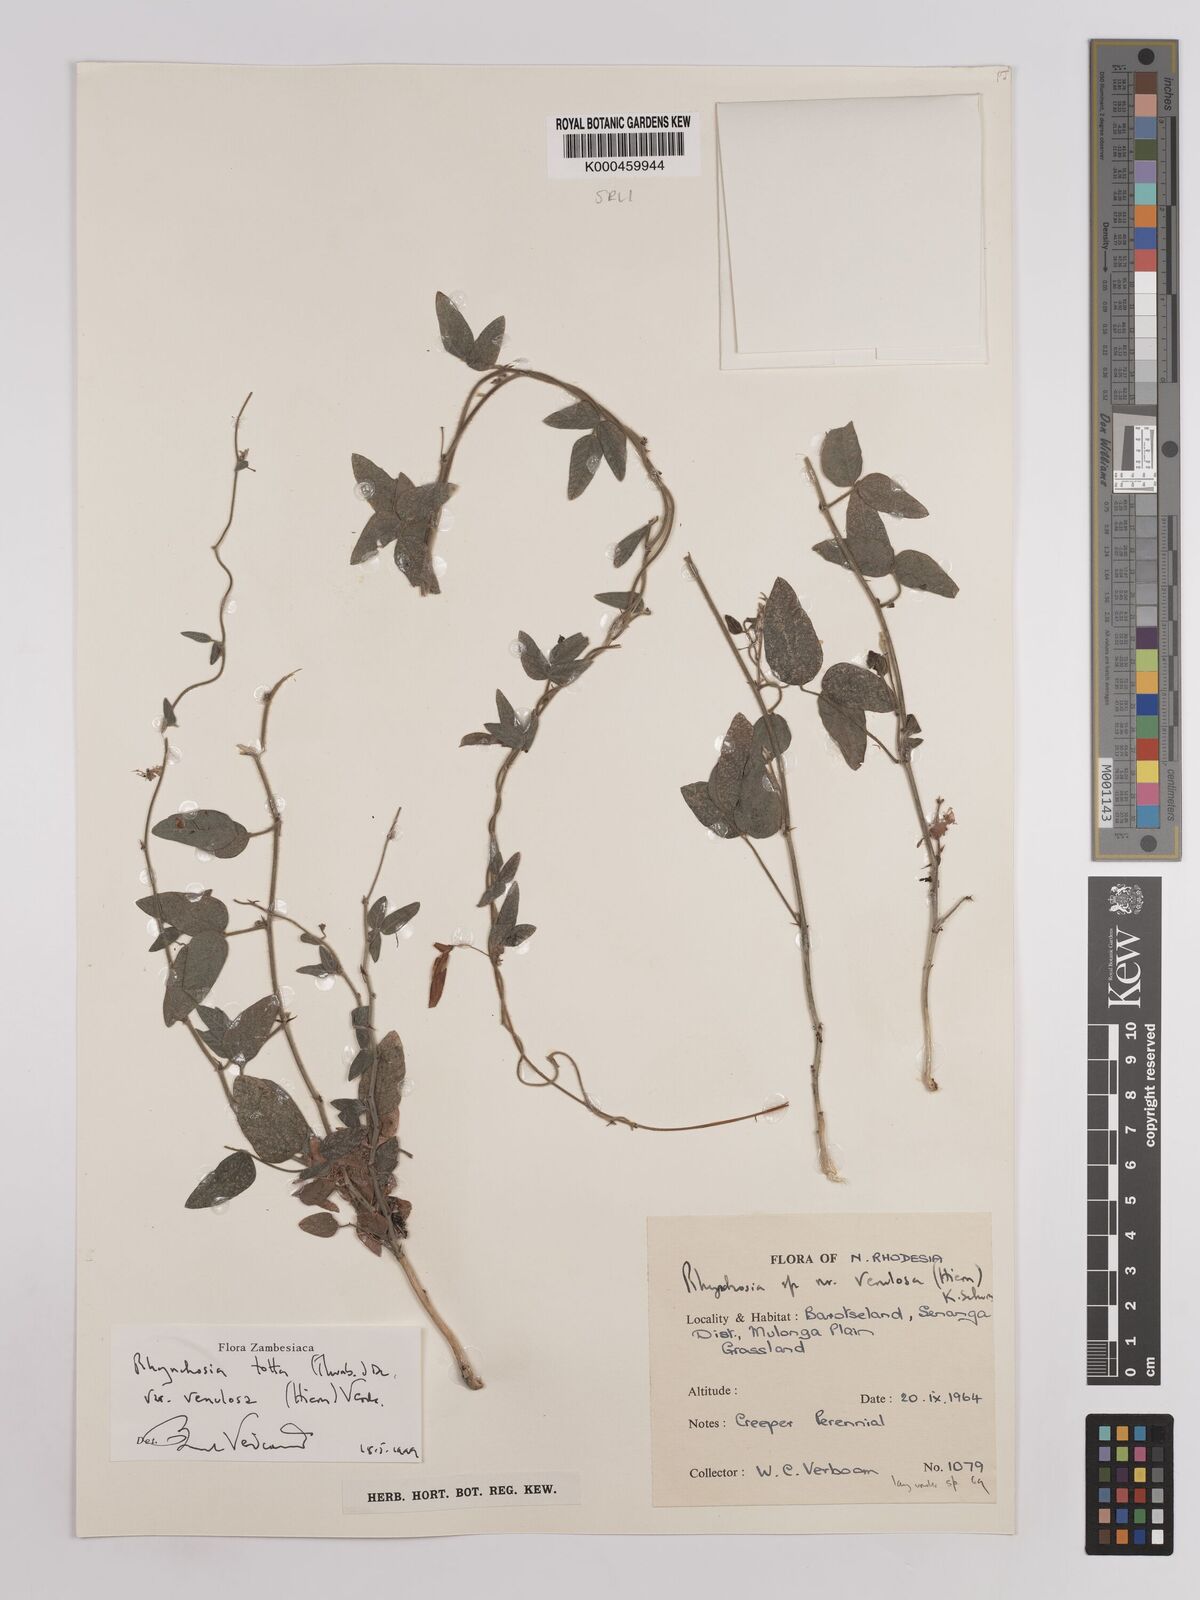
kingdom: Plantae
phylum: Tracheophyta
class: Magnoliopsida
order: Fabales
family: Fabaceae
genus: Rhynchosia
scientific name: Rhynchosia totta
